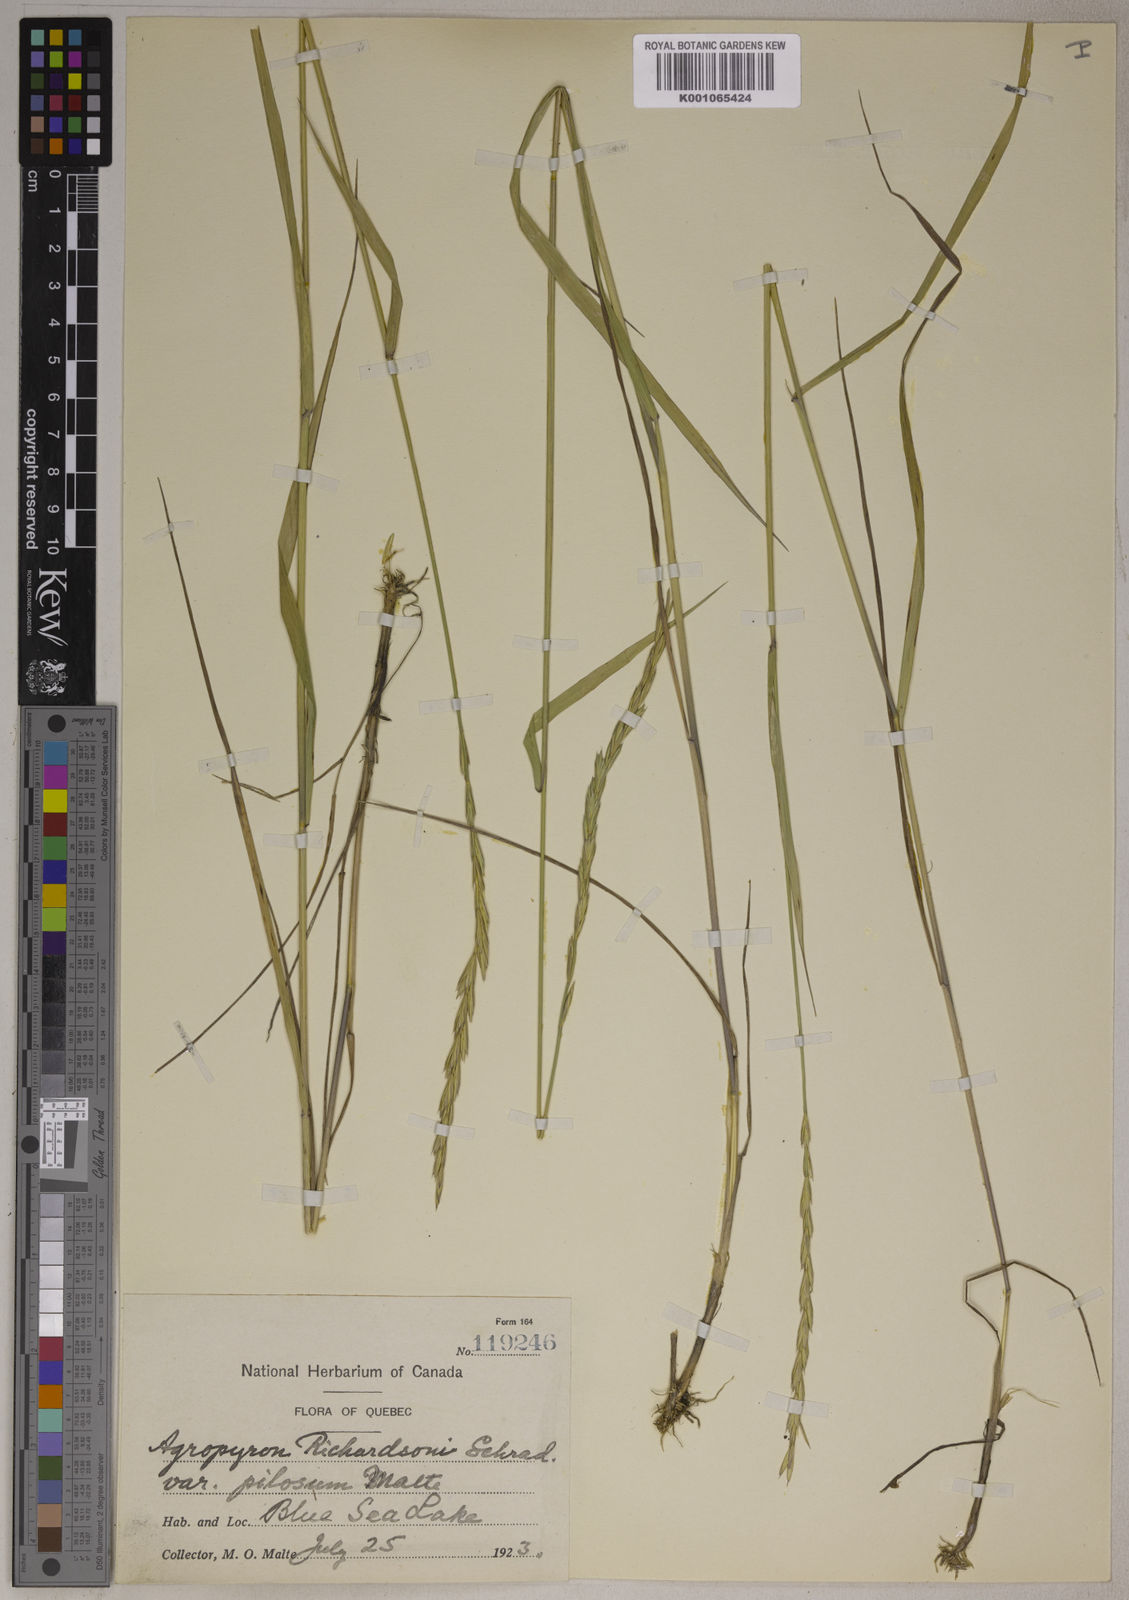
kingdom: Plantae
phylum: Tracheophyta
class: Liliopsida
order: Poales
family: Poaceae
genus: Elymus
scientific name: Elymus
